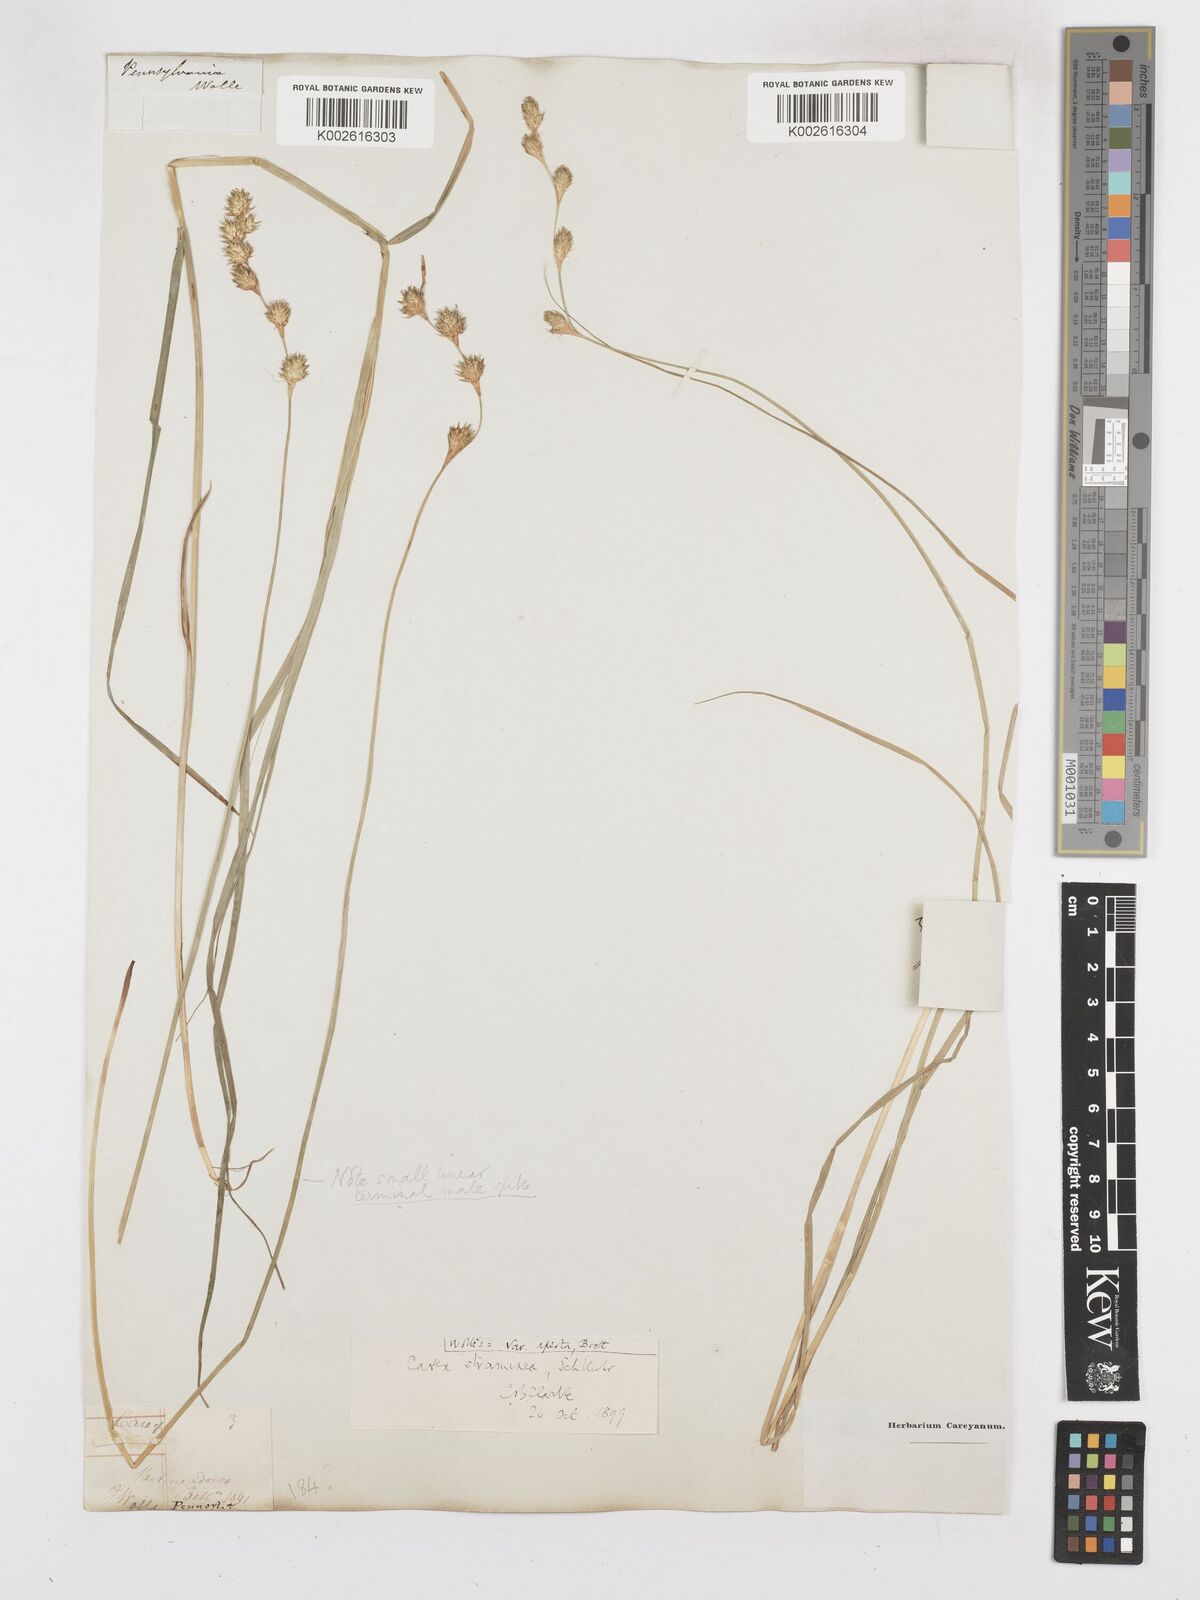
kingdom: Plantae
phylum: Tracheophyta
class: Liliopsida
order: Poales
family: Cyperaceae
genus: Carex
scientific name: Carex albolutescens
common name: Freenish white sedge
